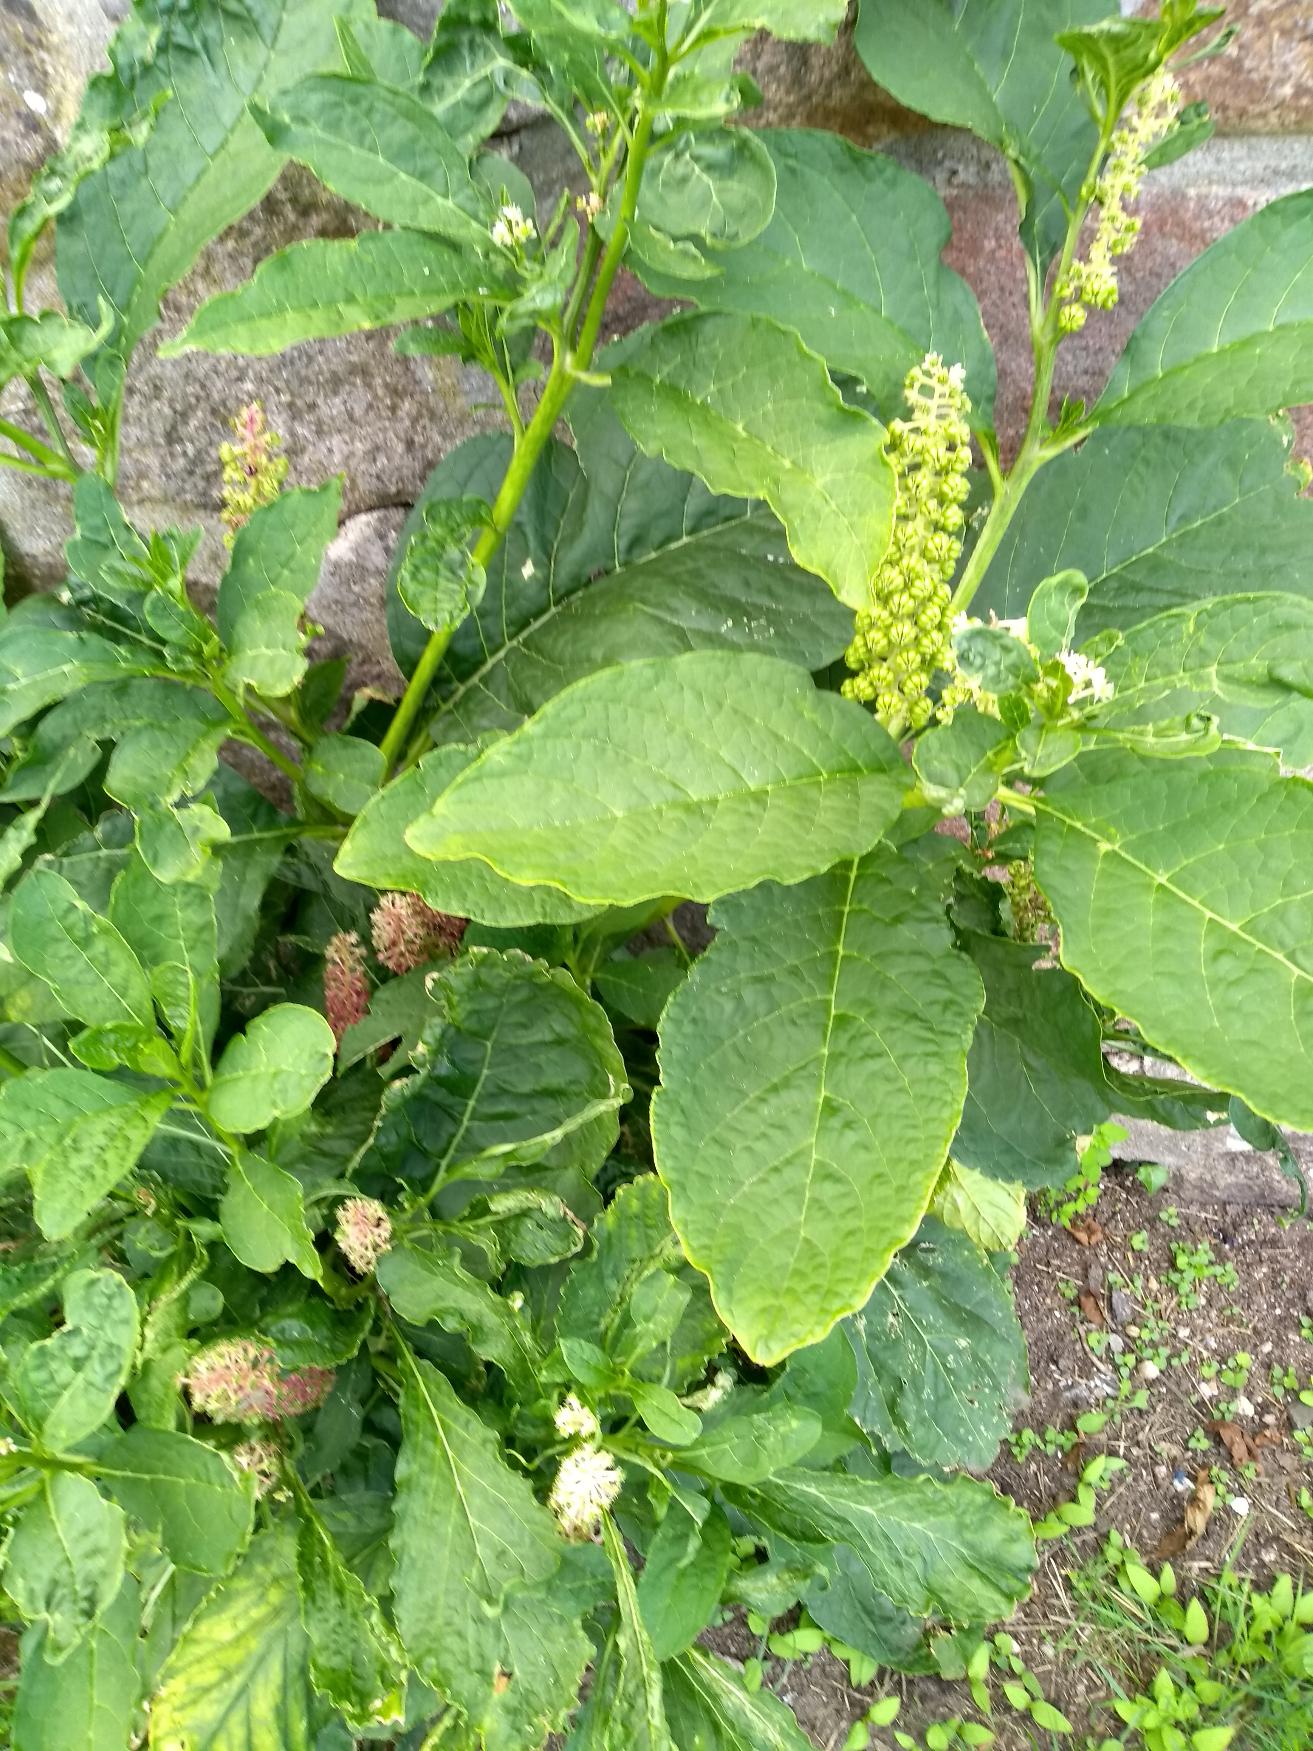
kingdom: Plantae
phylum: Tracheophyta
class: Magnoliopsida
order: Caryophyllales
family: Phytolaccaceae
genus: Phytolacca
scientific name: Phytolacca acinosa
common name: Asiatisk kermesbær
